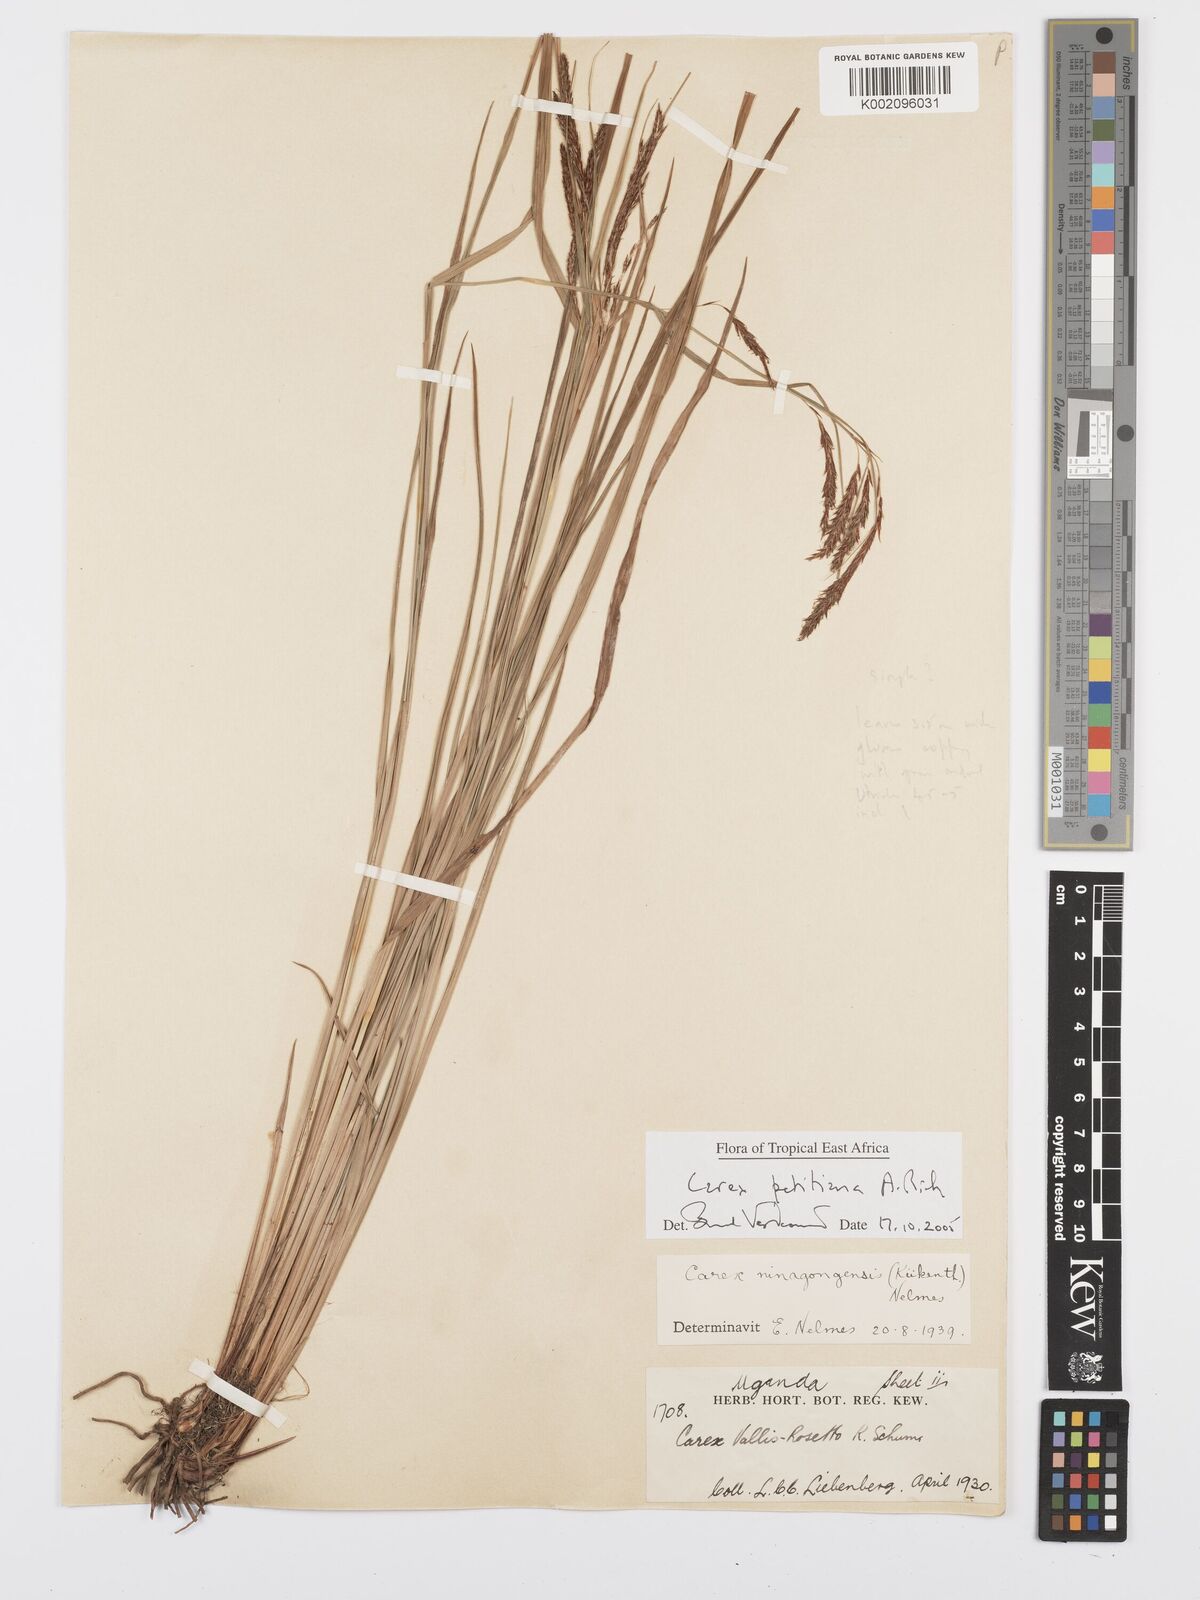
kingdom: Plantae
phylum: Tracheophyta
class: Liliopsida
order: Poales
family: Cyperaceae
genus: Carex
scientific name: Carex mannii
